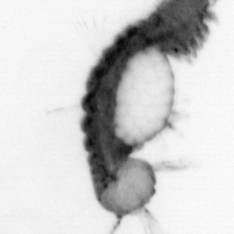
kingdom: Animalia
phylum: Annelida
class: Polychaeta
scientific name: Polychaeta
